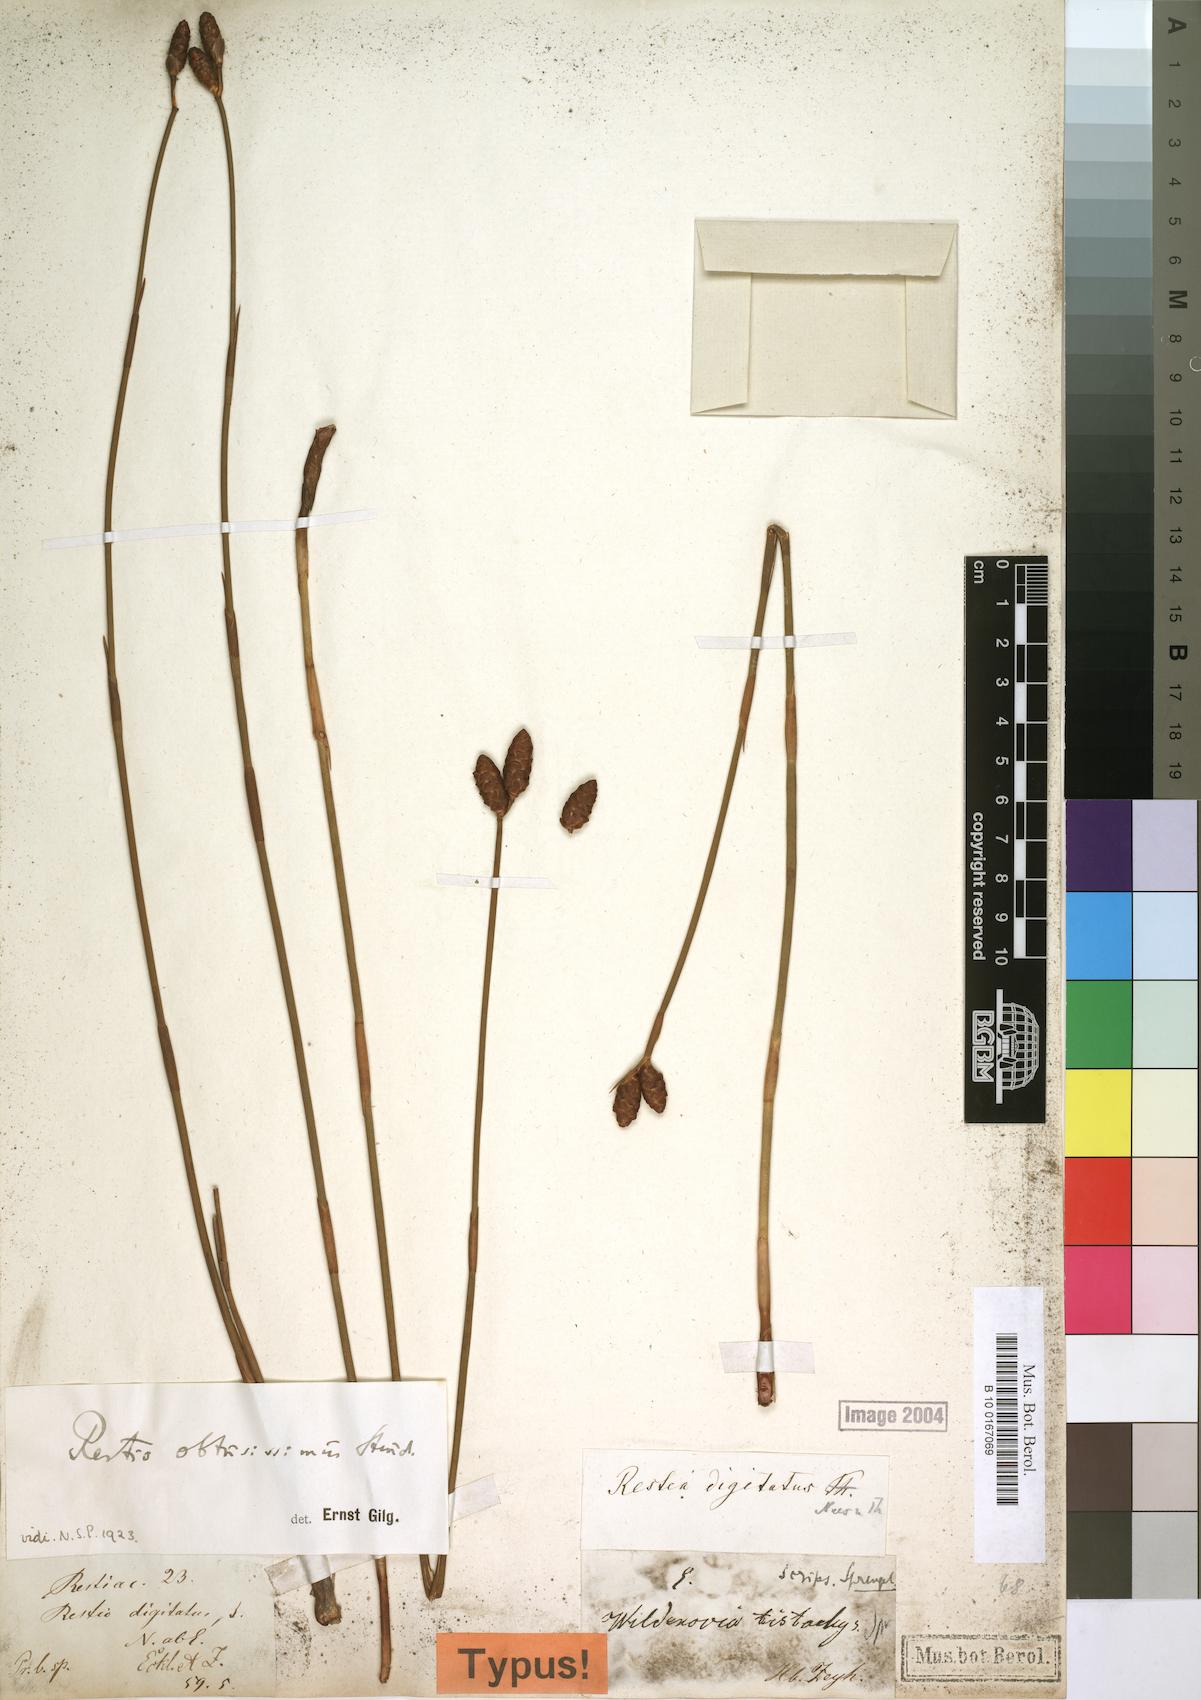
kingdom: Plantae
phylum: Tracheophyta
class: Liliopsida
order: Poales
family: Restionaceae
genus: Nevillea
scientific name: Nevillea obtusissimus
